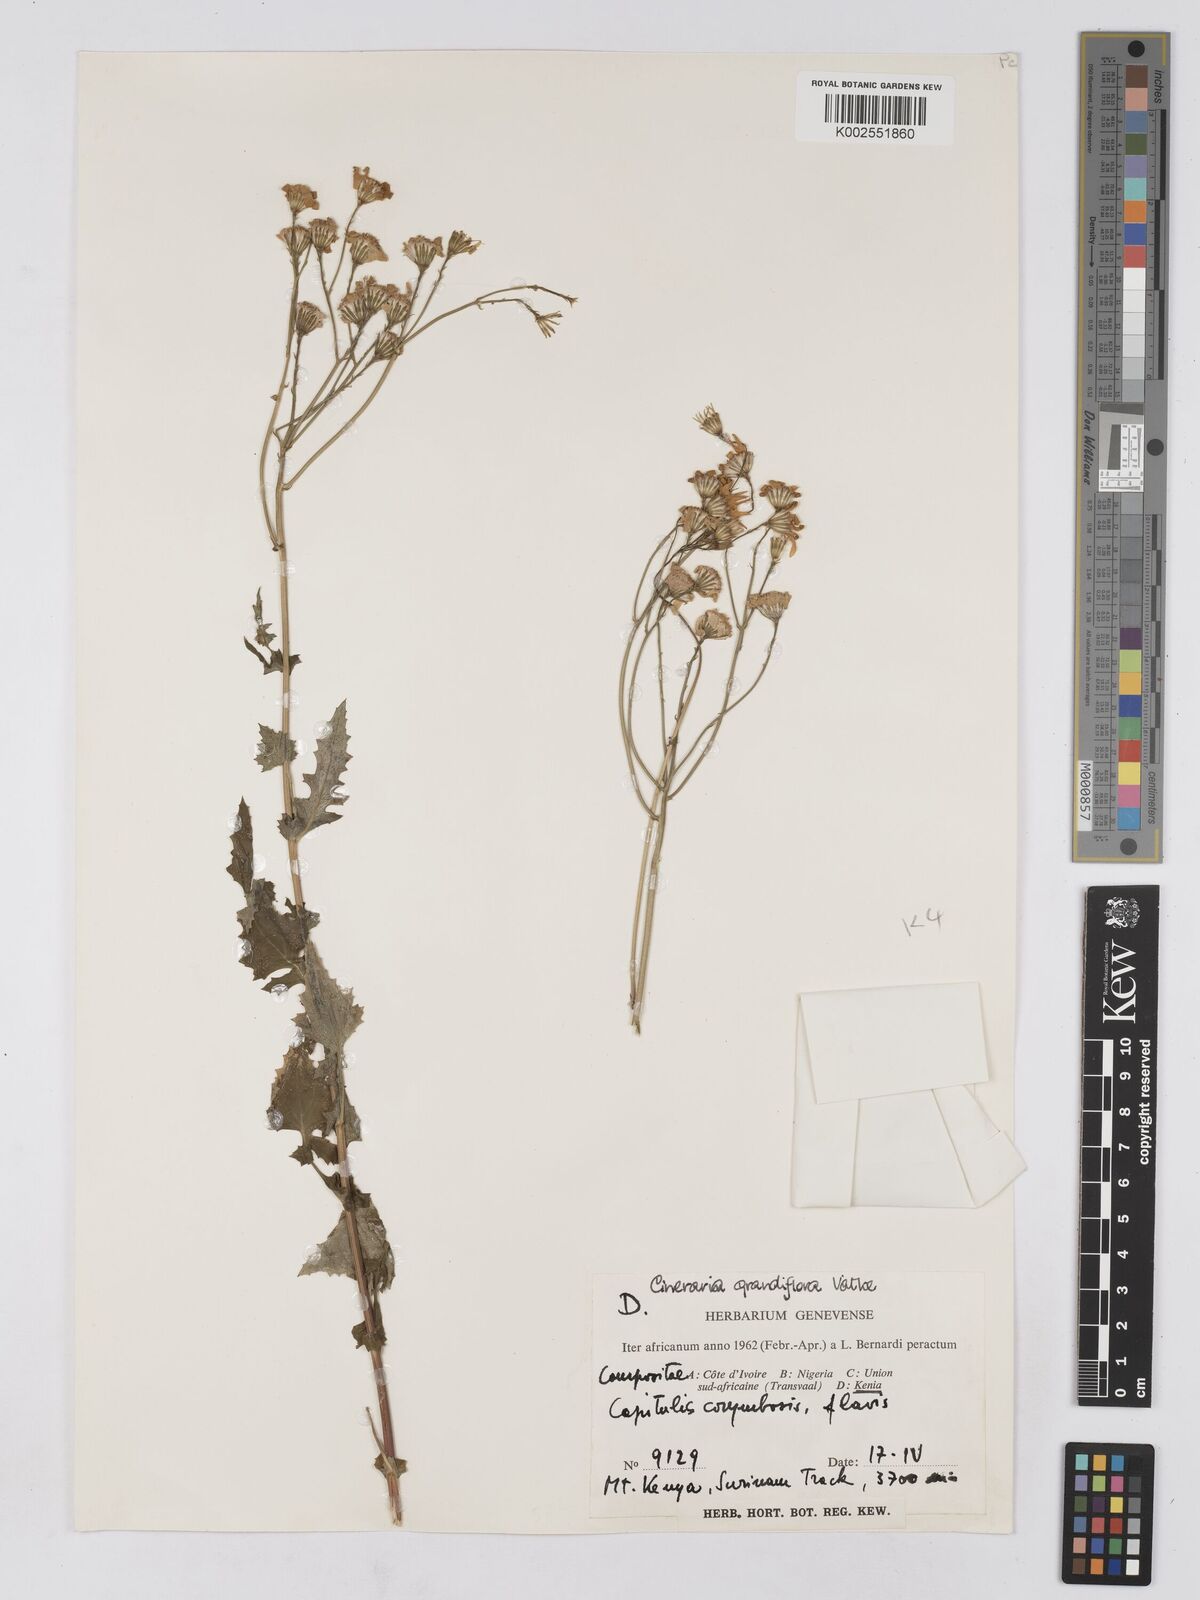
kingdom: Plantae
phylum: Tracheophyta
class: Magnoliopsida
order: Asterales
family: Asteraceae
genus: Cineraria
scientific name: Cineraria deltoidea
